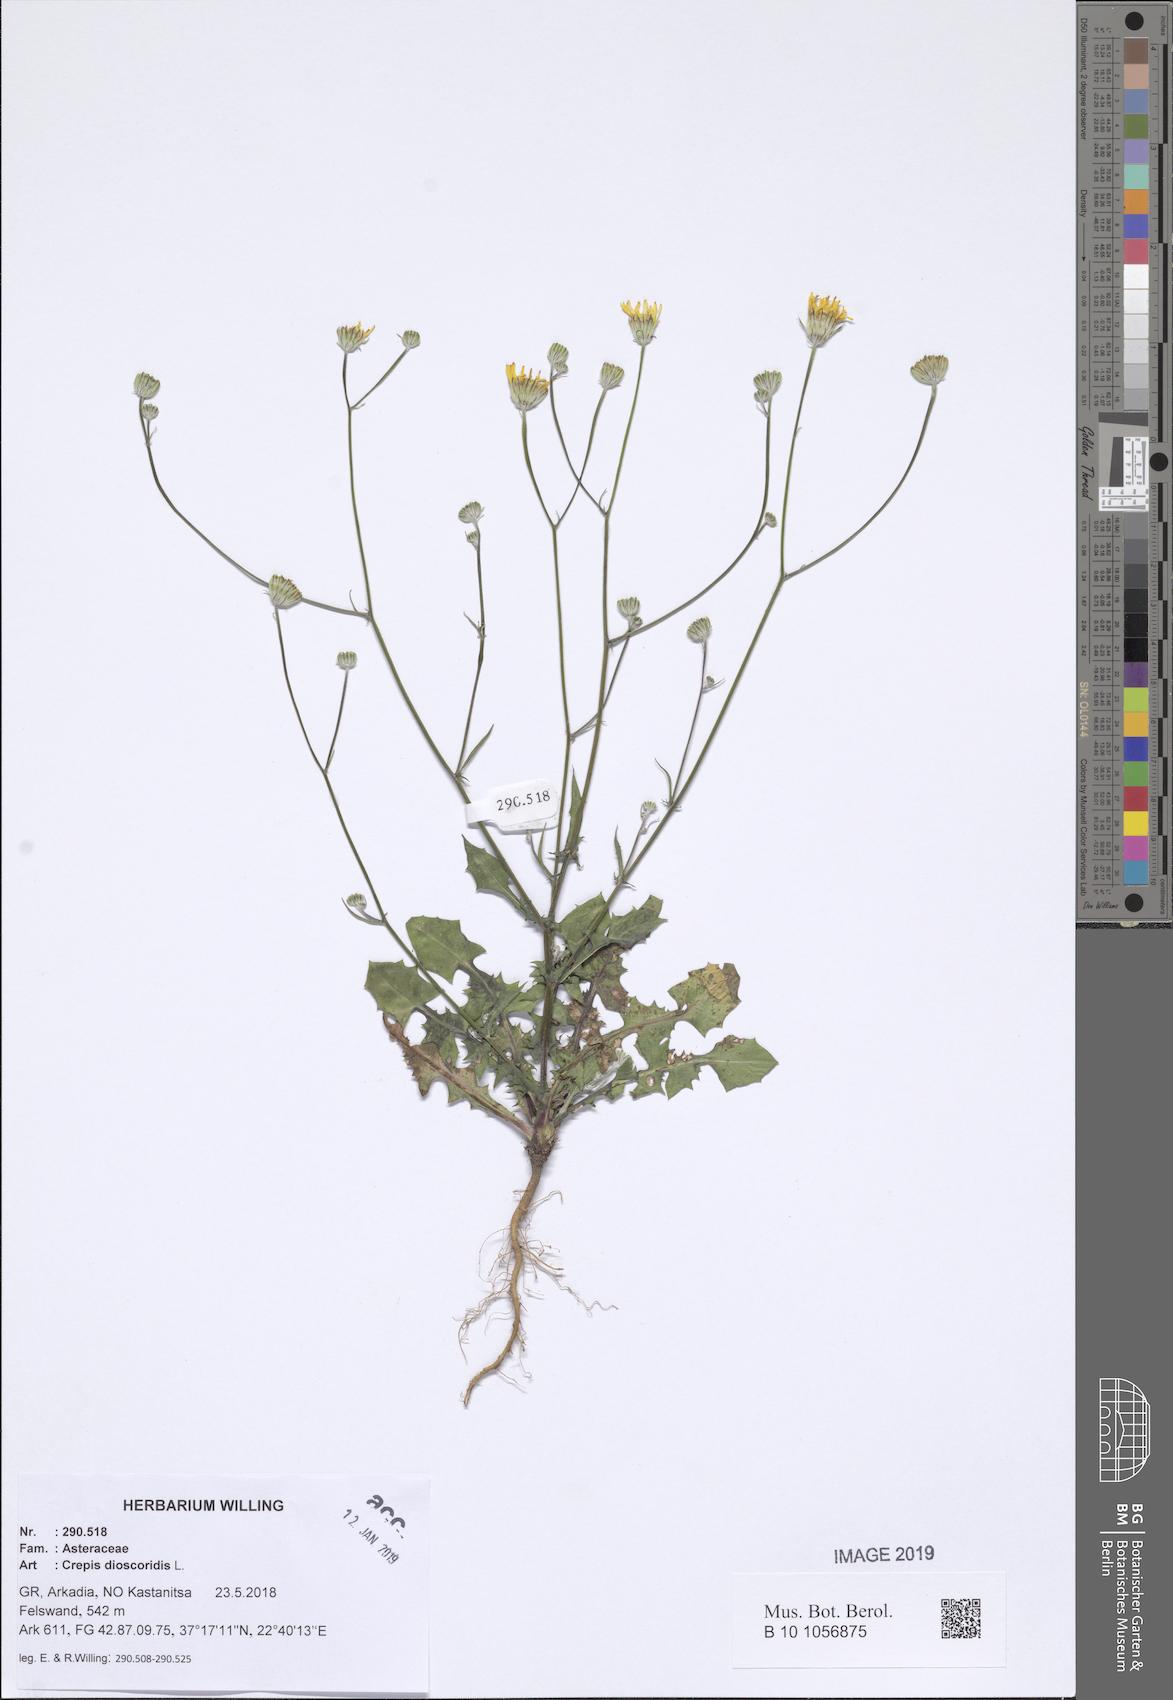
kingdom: Plantae
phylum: Tracheophyta
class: Magnoliopsida
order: Asterales
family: Asteraceae
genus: Crepis
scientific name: Crepis dioscoridis
